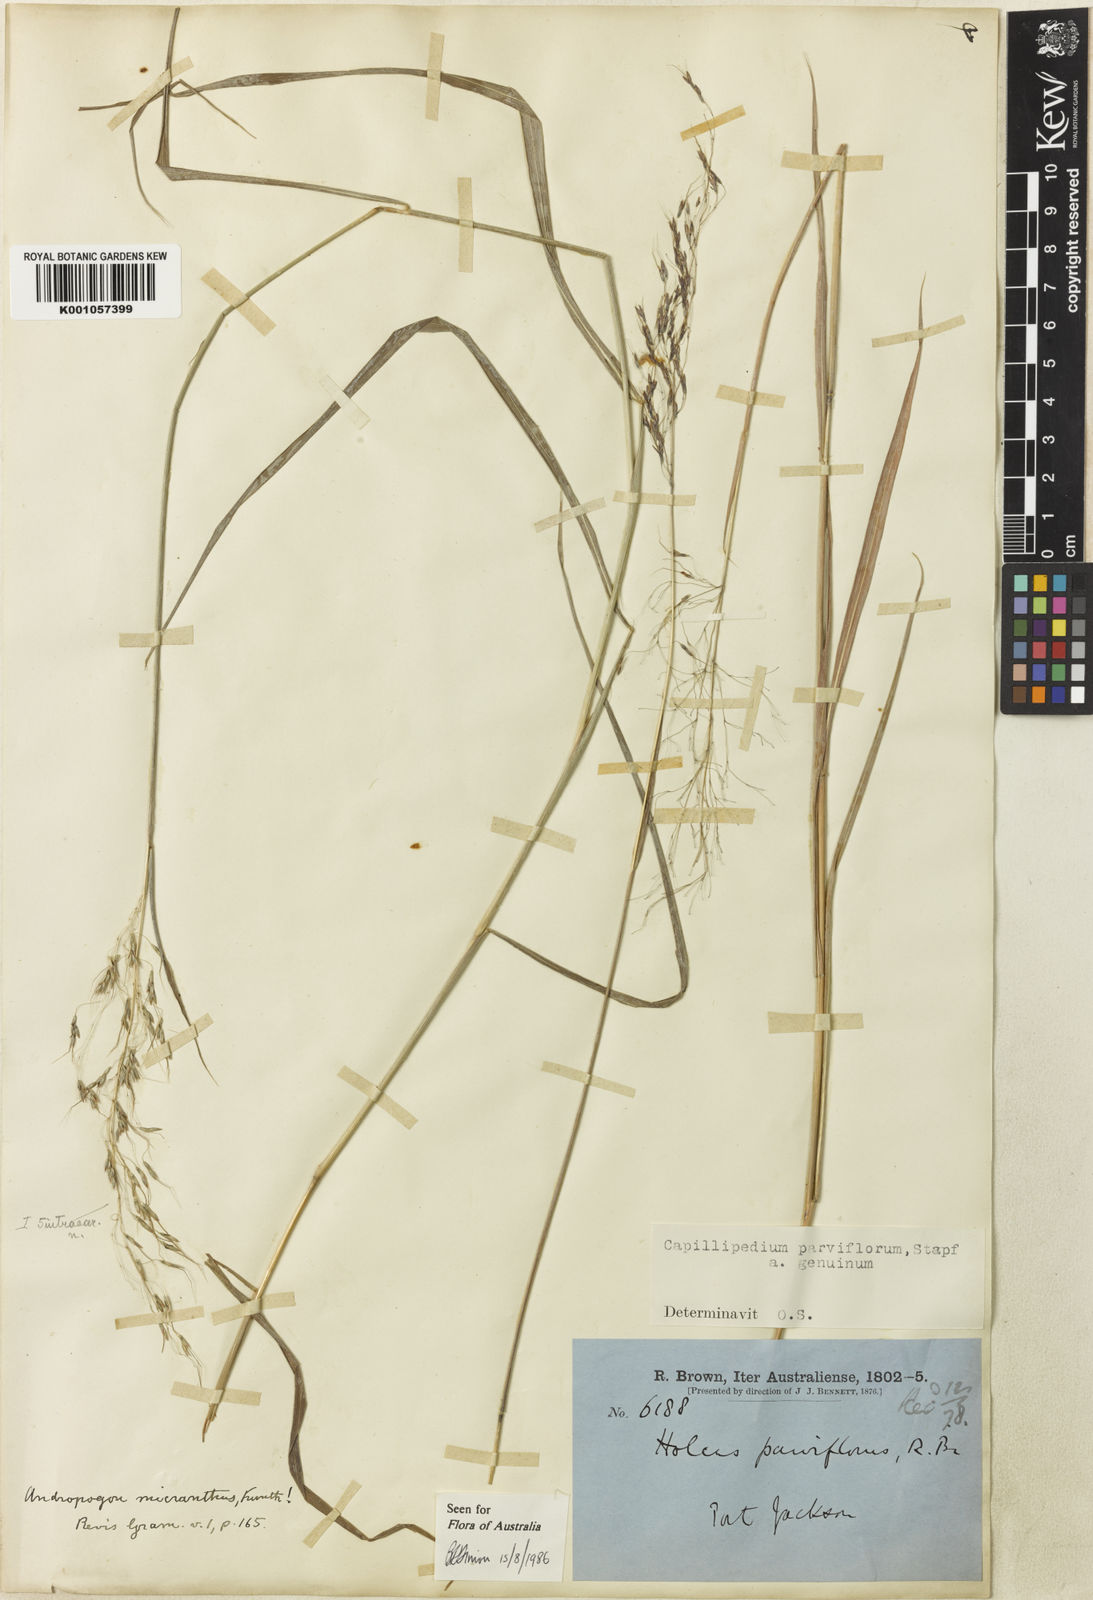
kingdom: Plantae
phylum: Tracheophyta
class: Liliopsida
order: Poales
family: Poaceae
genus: Capillipedium
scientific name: Capillipedium parviflorum
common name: Golden-beard
